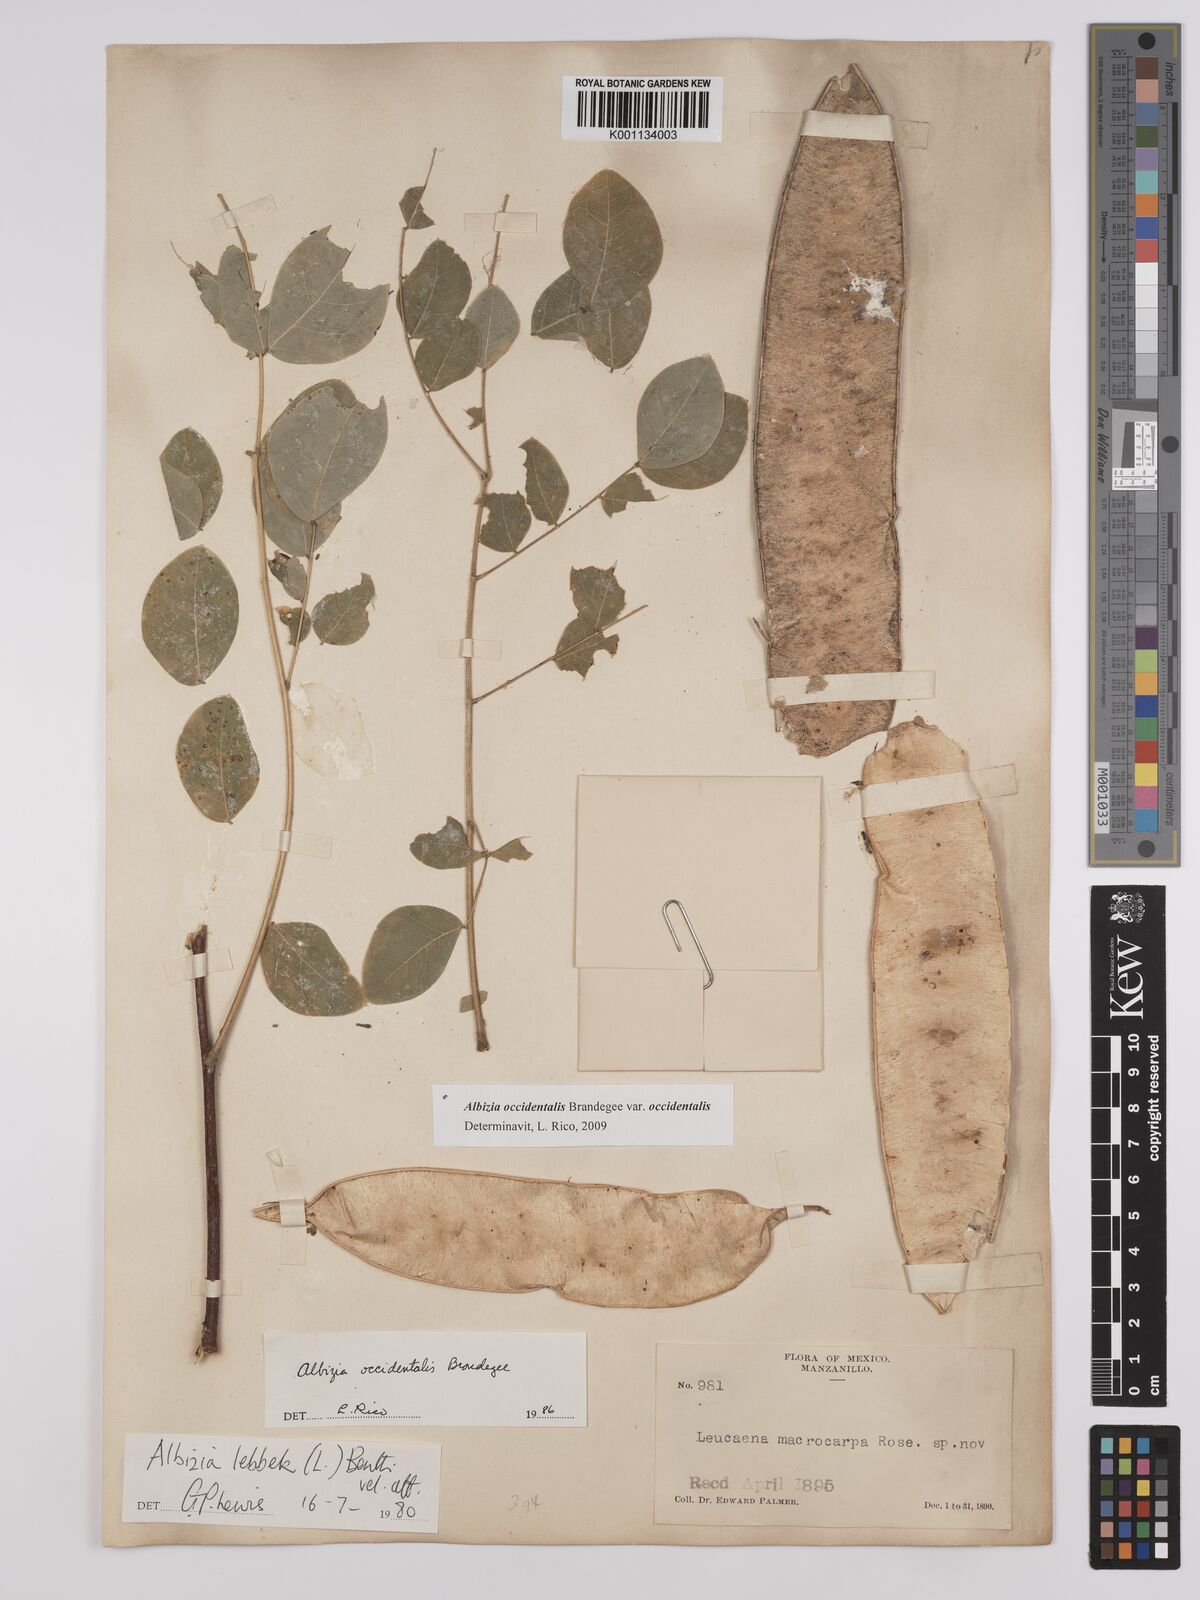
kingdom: Plantae
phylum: Tracheophyta
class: Magnoliopsida
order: Fabales
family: Fabaceae
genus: Albizia
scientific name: Albizia occidentalis
